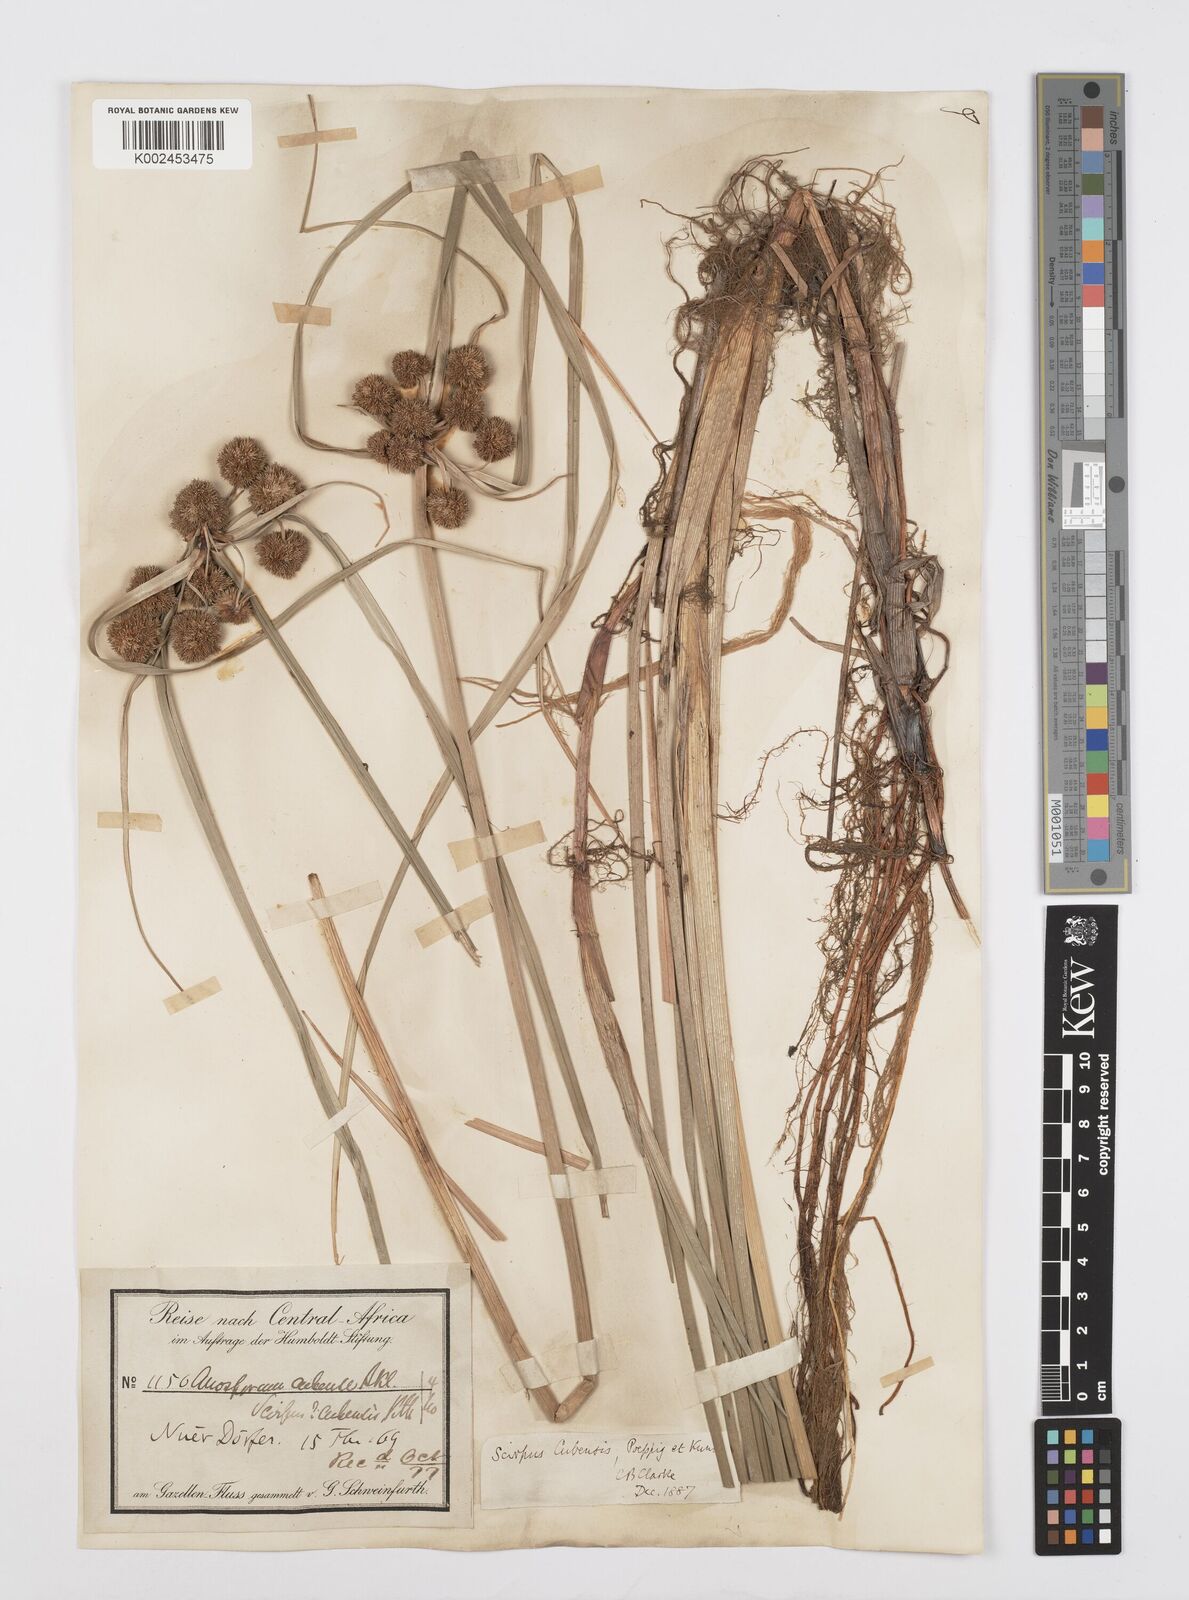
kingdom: Plantae
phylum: Tracheophyta
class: Liliopsida
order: Poales
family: Cyperaceae
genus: Cyperus
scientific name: Cyperus elegans
